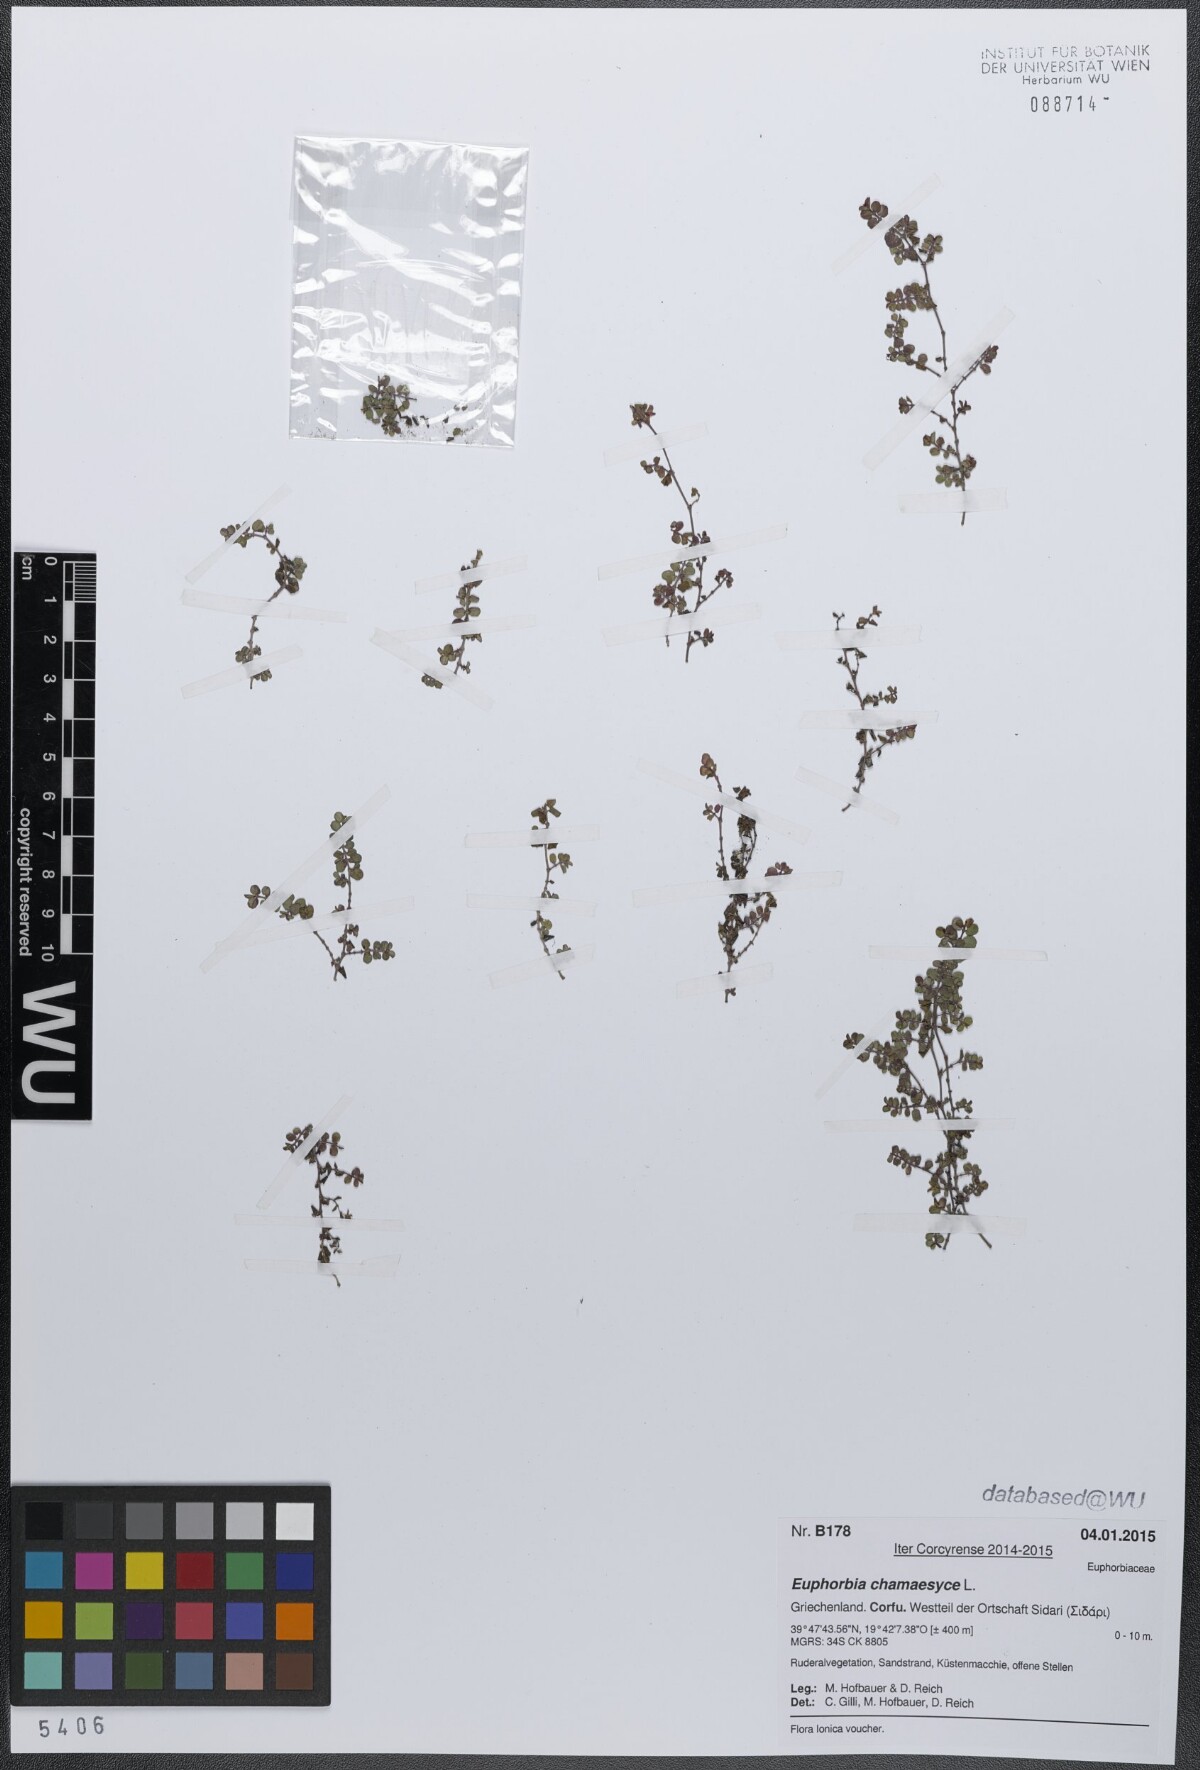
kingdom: Plantae
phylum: Tracheophyta
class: Magnoliopsida
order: Malpighiales
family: Euphorbiaceae
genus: Euphorbia
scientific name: Euphorbia serpens
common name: Matted sandmat
